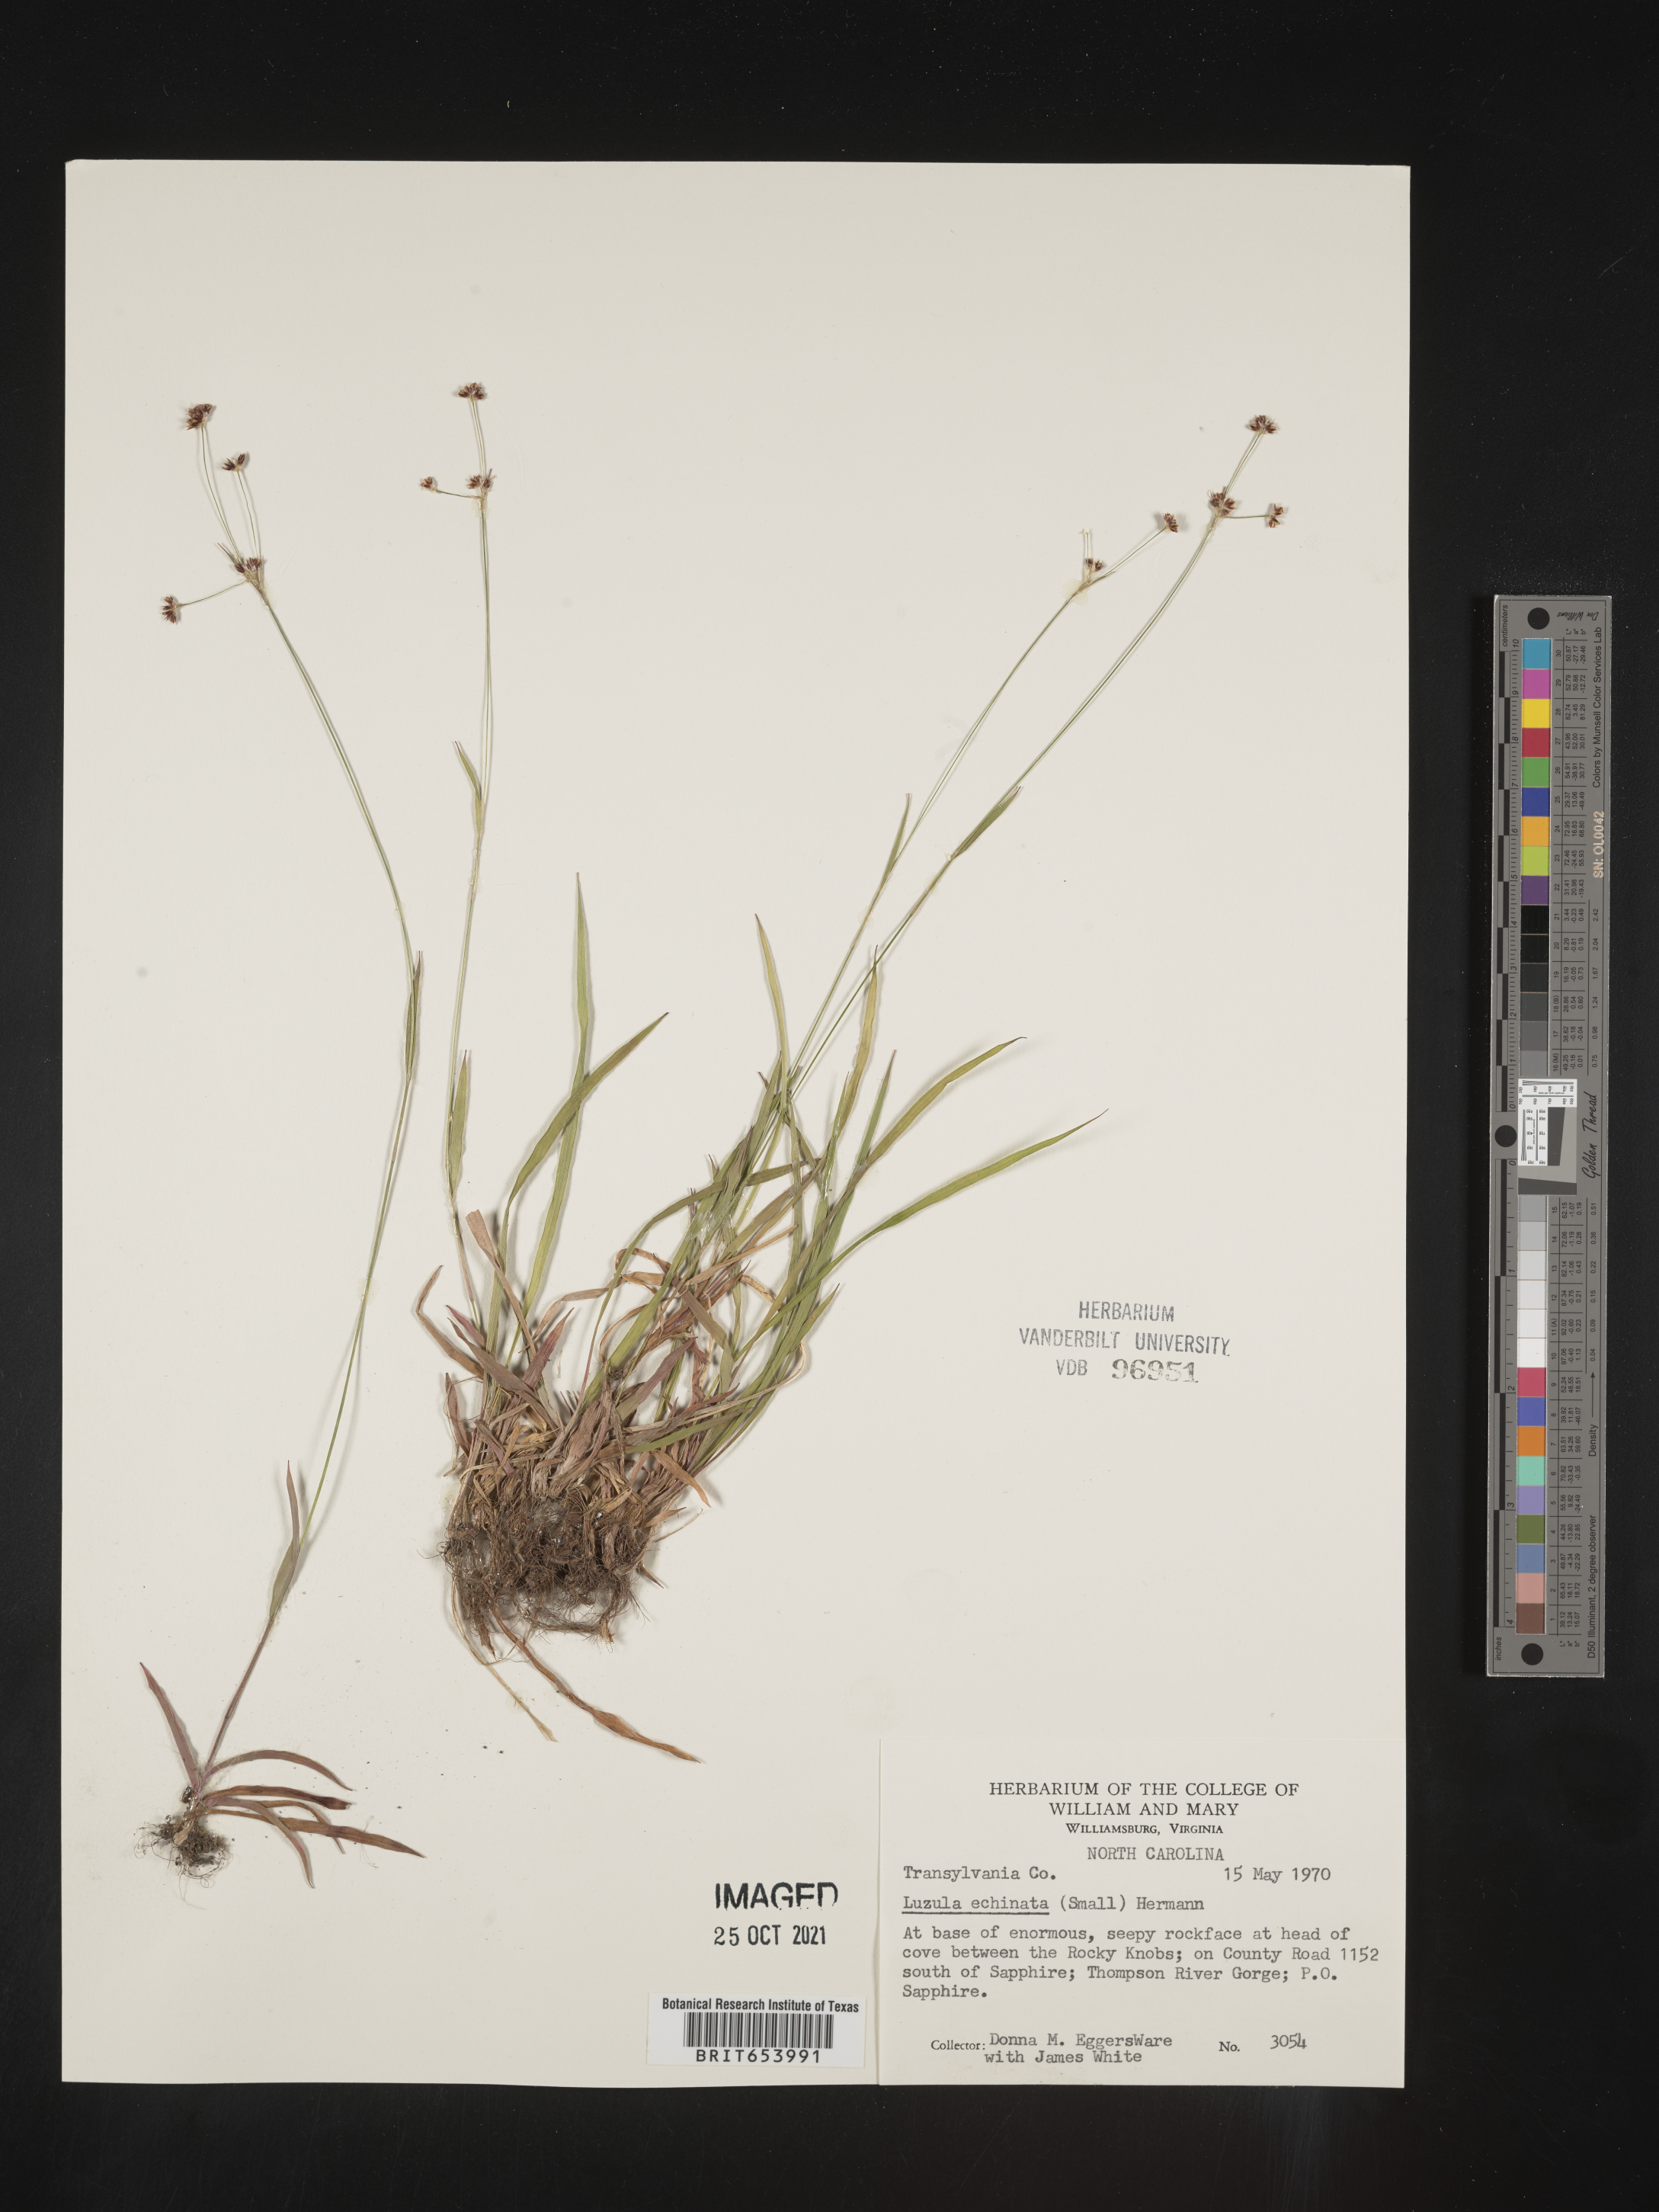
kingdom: Plantae
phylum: Tracheophyta
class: Liliopsida
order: Poales
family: Juncaceae
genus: Luzula
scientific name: Luzula echinata
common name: Hedgehog woodrush
